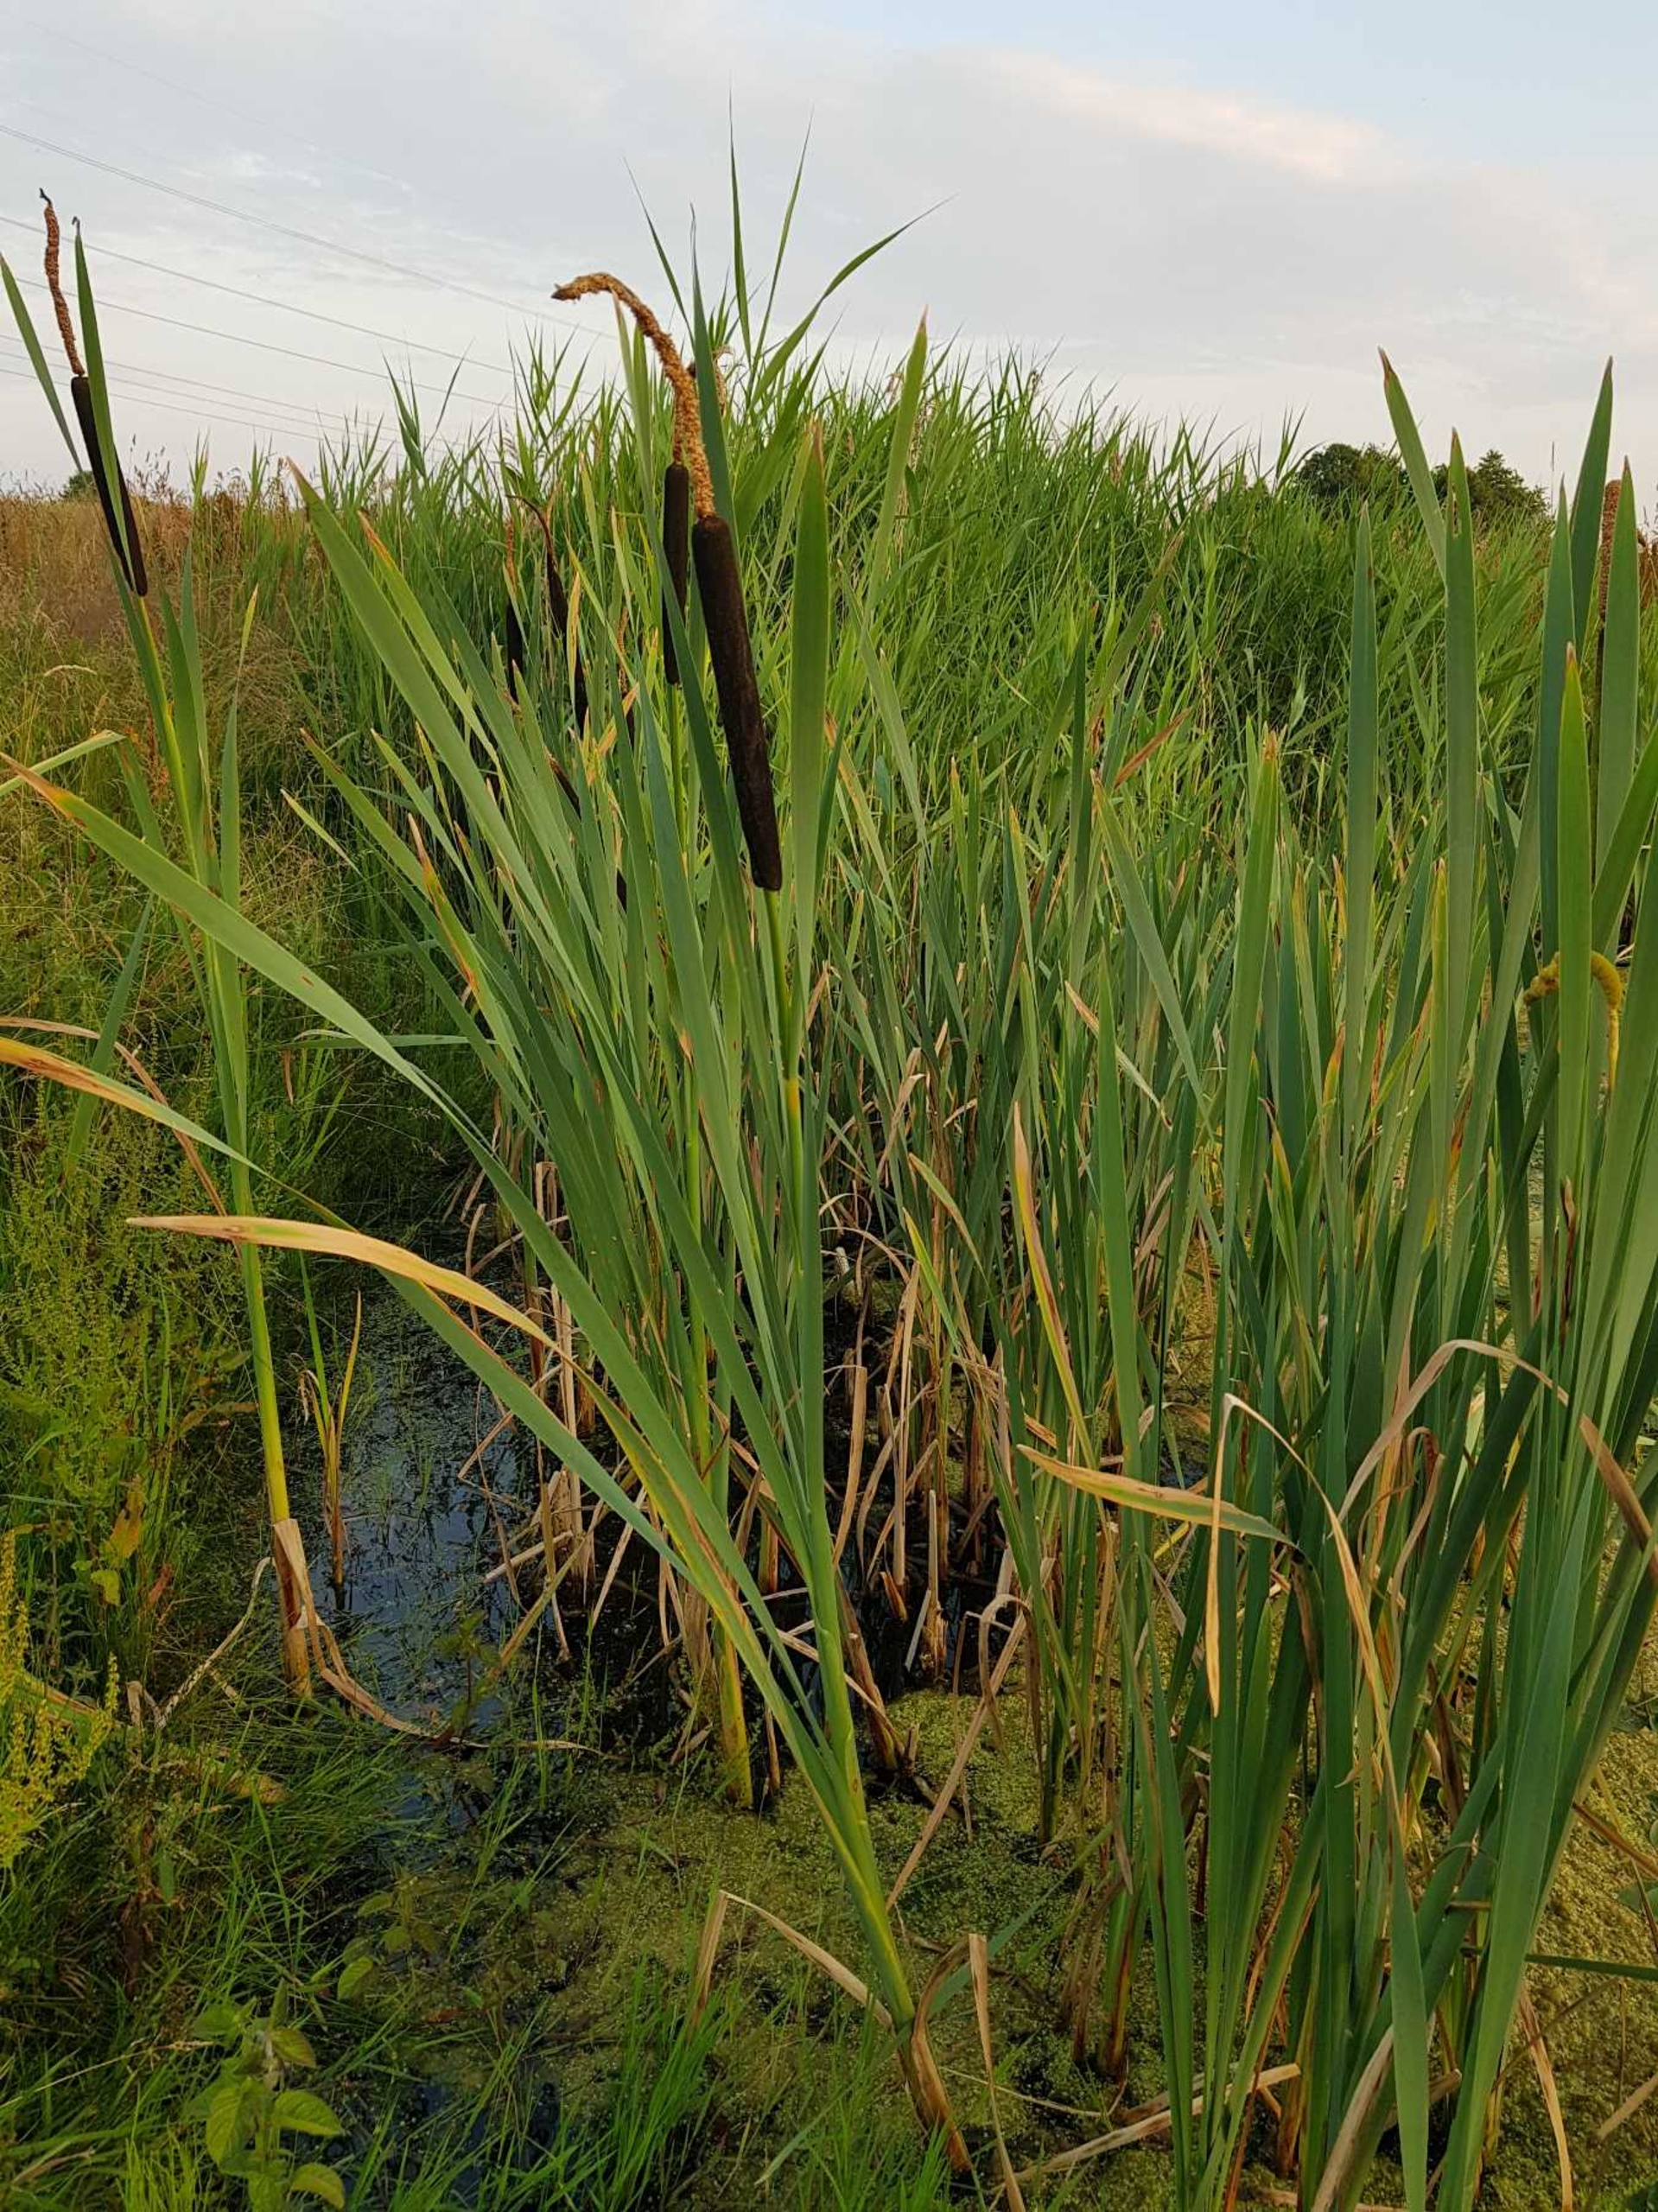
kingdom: Plantae
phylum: Tracheophyta
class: Liliopsida
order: Poales
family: Typhaceae
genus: Typha
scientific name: Typha latifolia
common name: Bredbladet dunhammer
